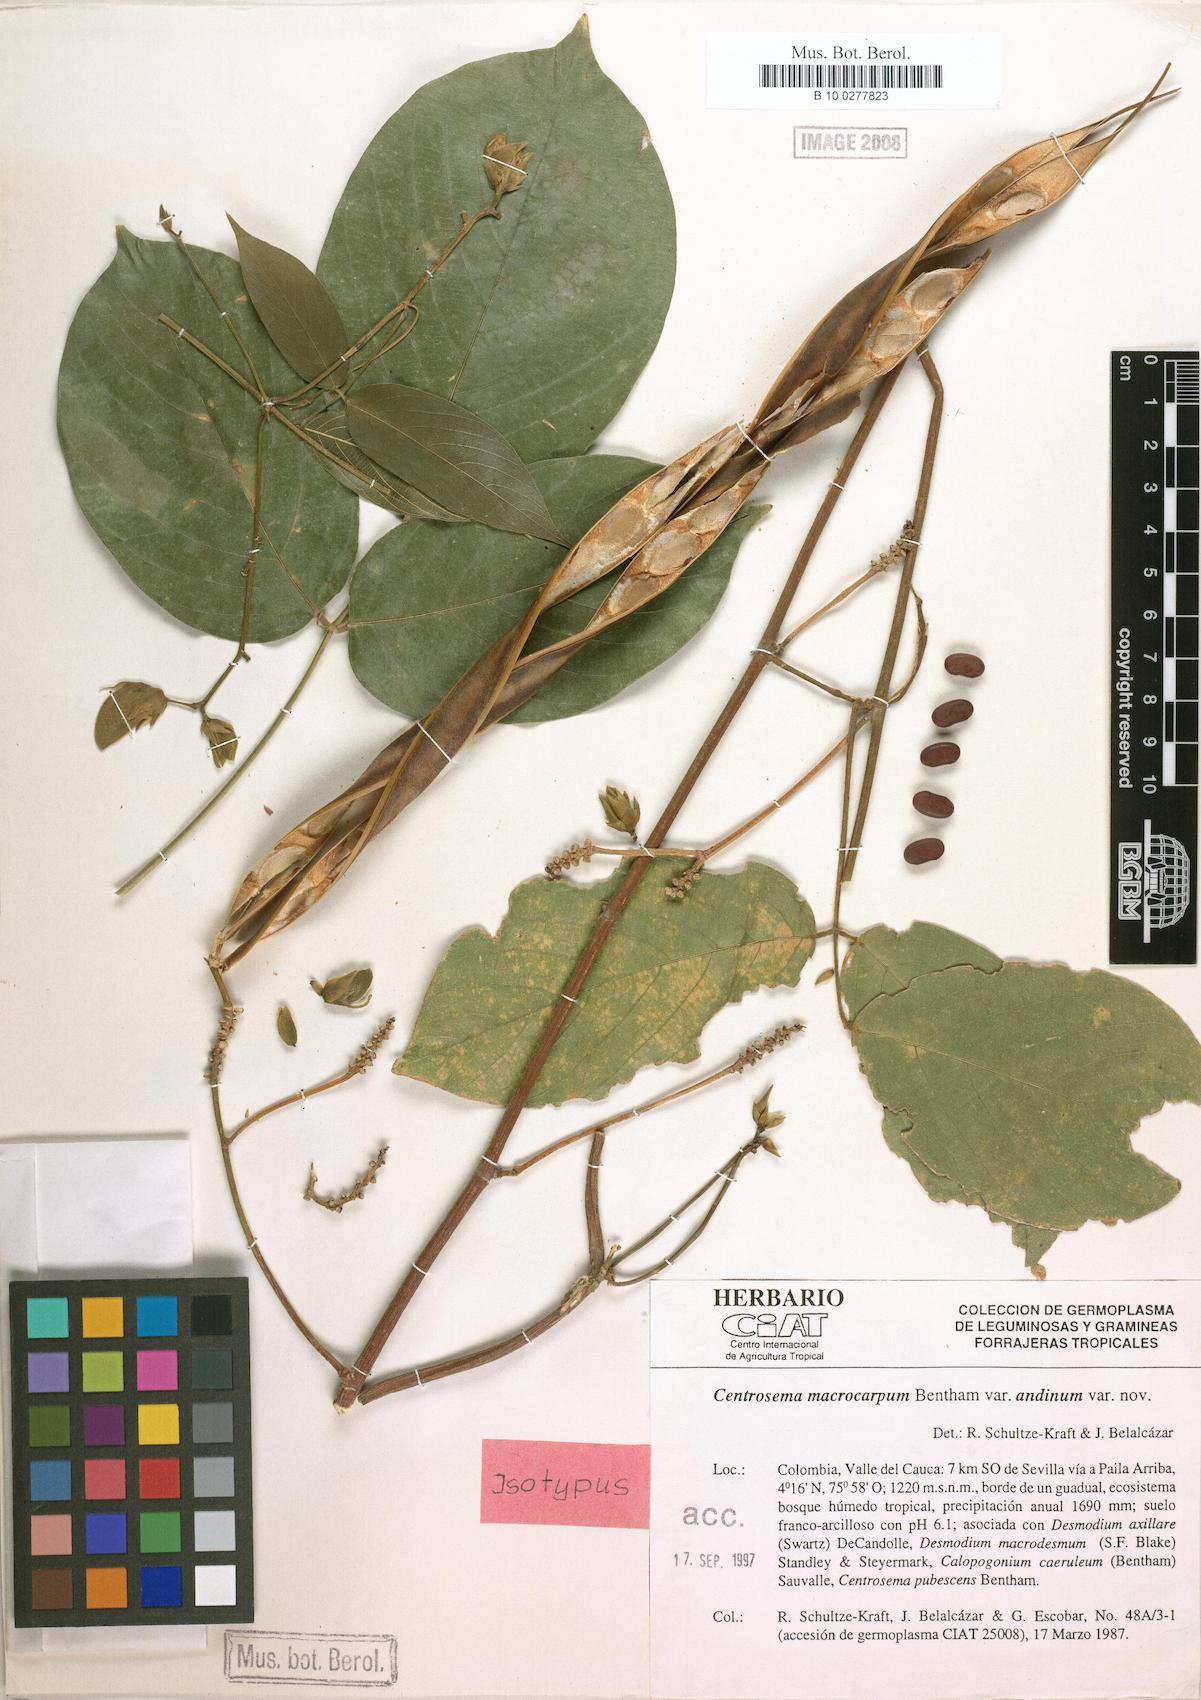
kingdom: Plantae
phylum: Tracheophyta
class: Magnoliopsida
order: Fabales
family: Fabaceae
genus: Centrosema
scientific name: Centrosema macrocarpum
